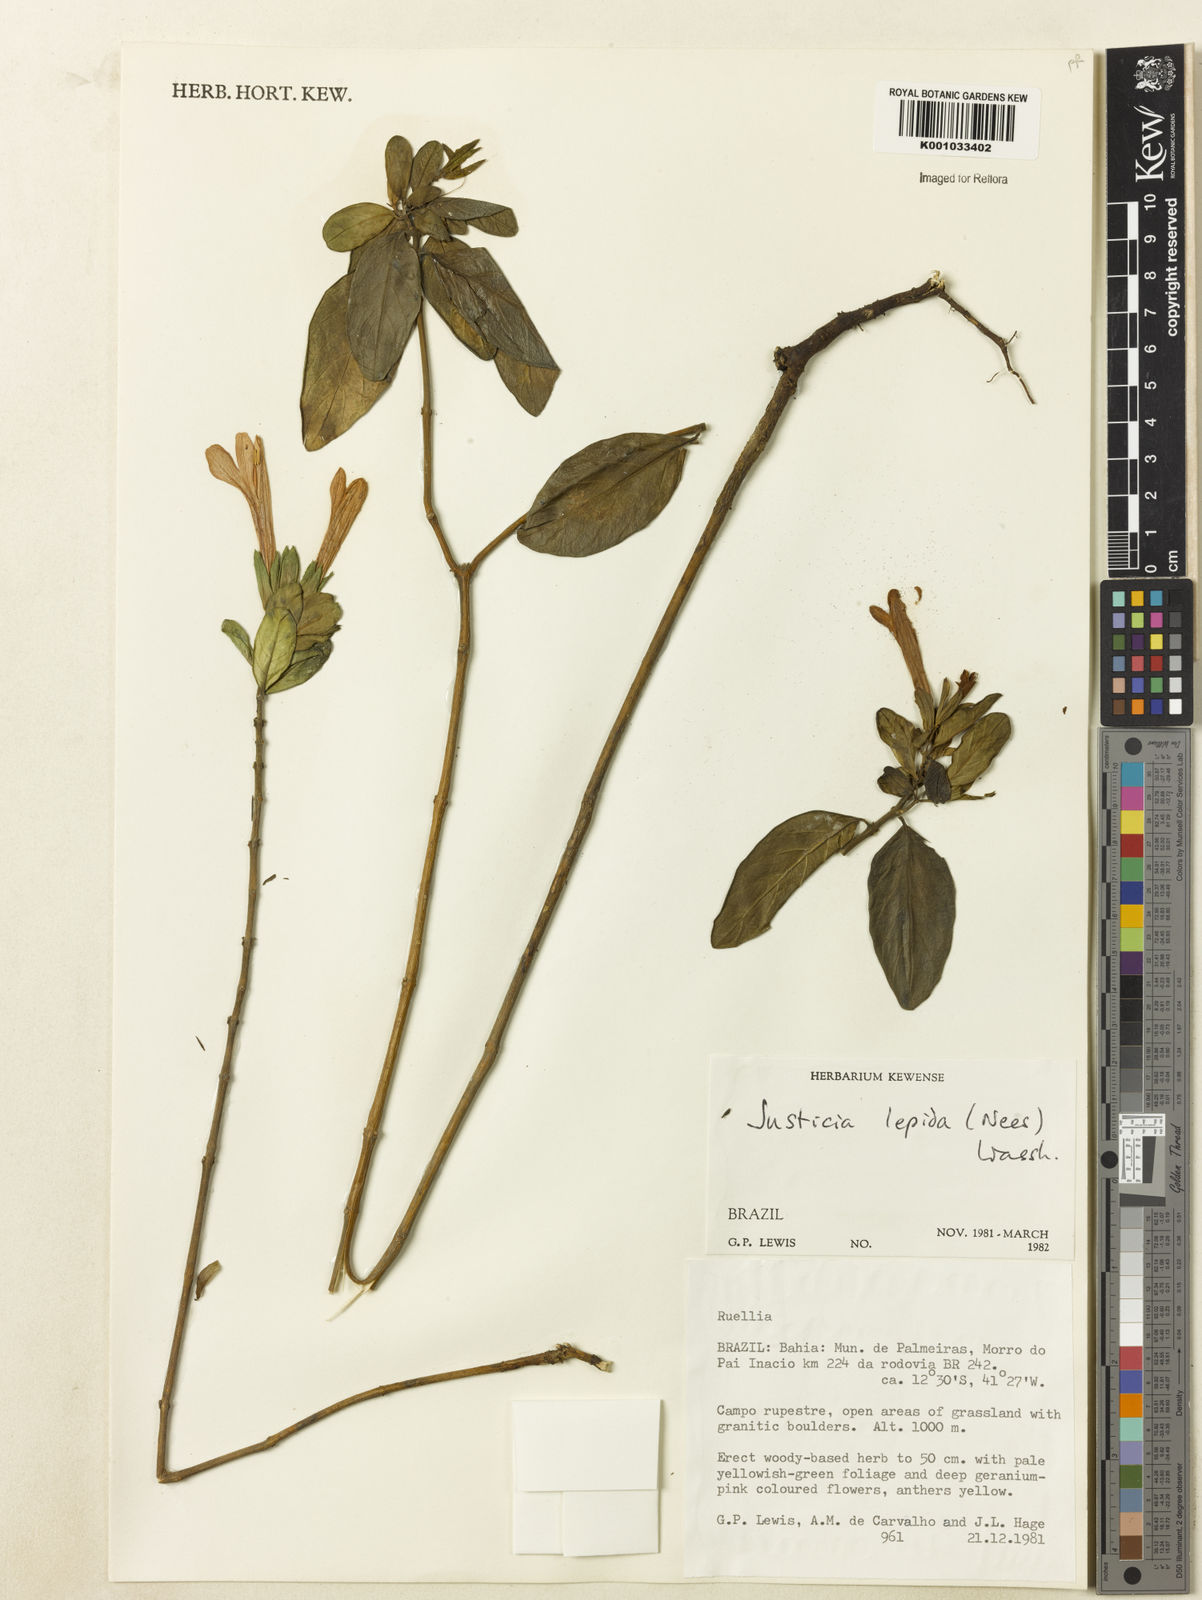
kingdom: Plantae
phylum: Tracheophyta
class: Magnoliopsida
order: Lamiales
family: Acanthaceae
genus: Justicia
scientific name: Justicia lepida
